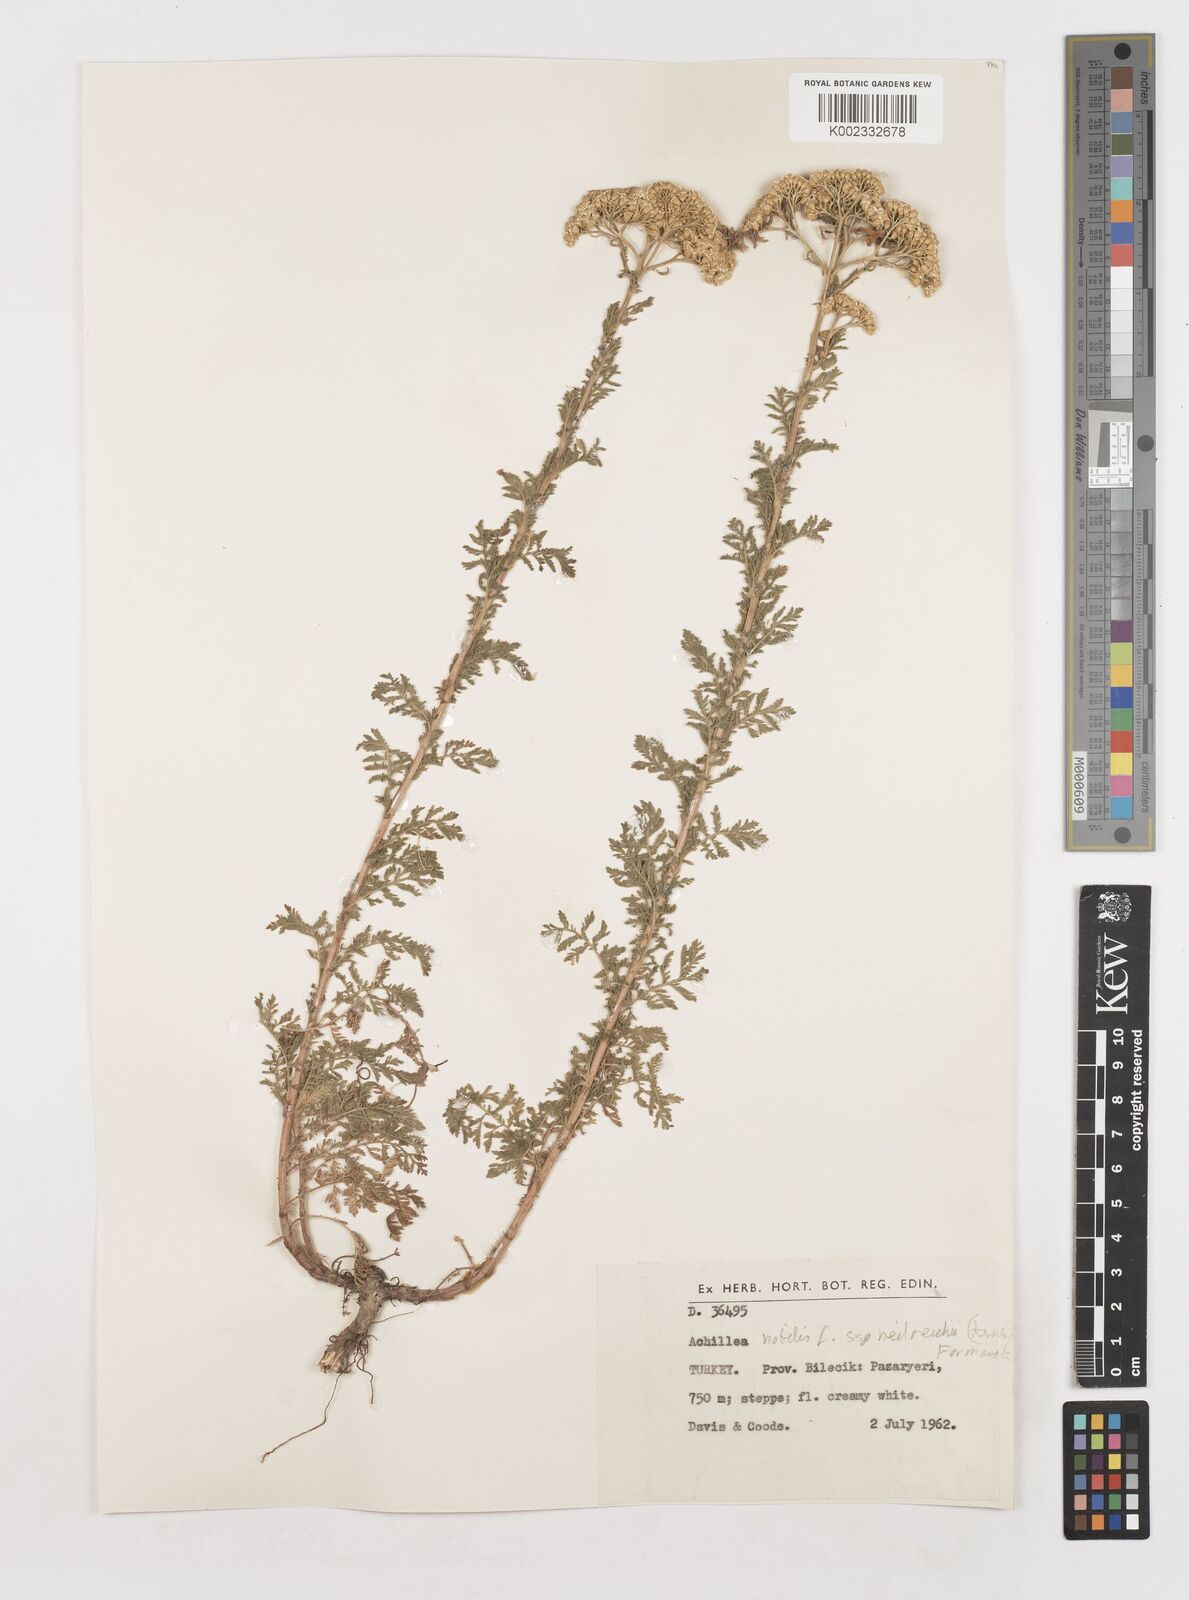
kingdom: Plantae
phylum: Tracheophyta
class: Magnoliopsida
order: Asterales
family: Asteraceae
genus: Achillea
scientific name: Achillea nobilis
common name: Noble yarrow
